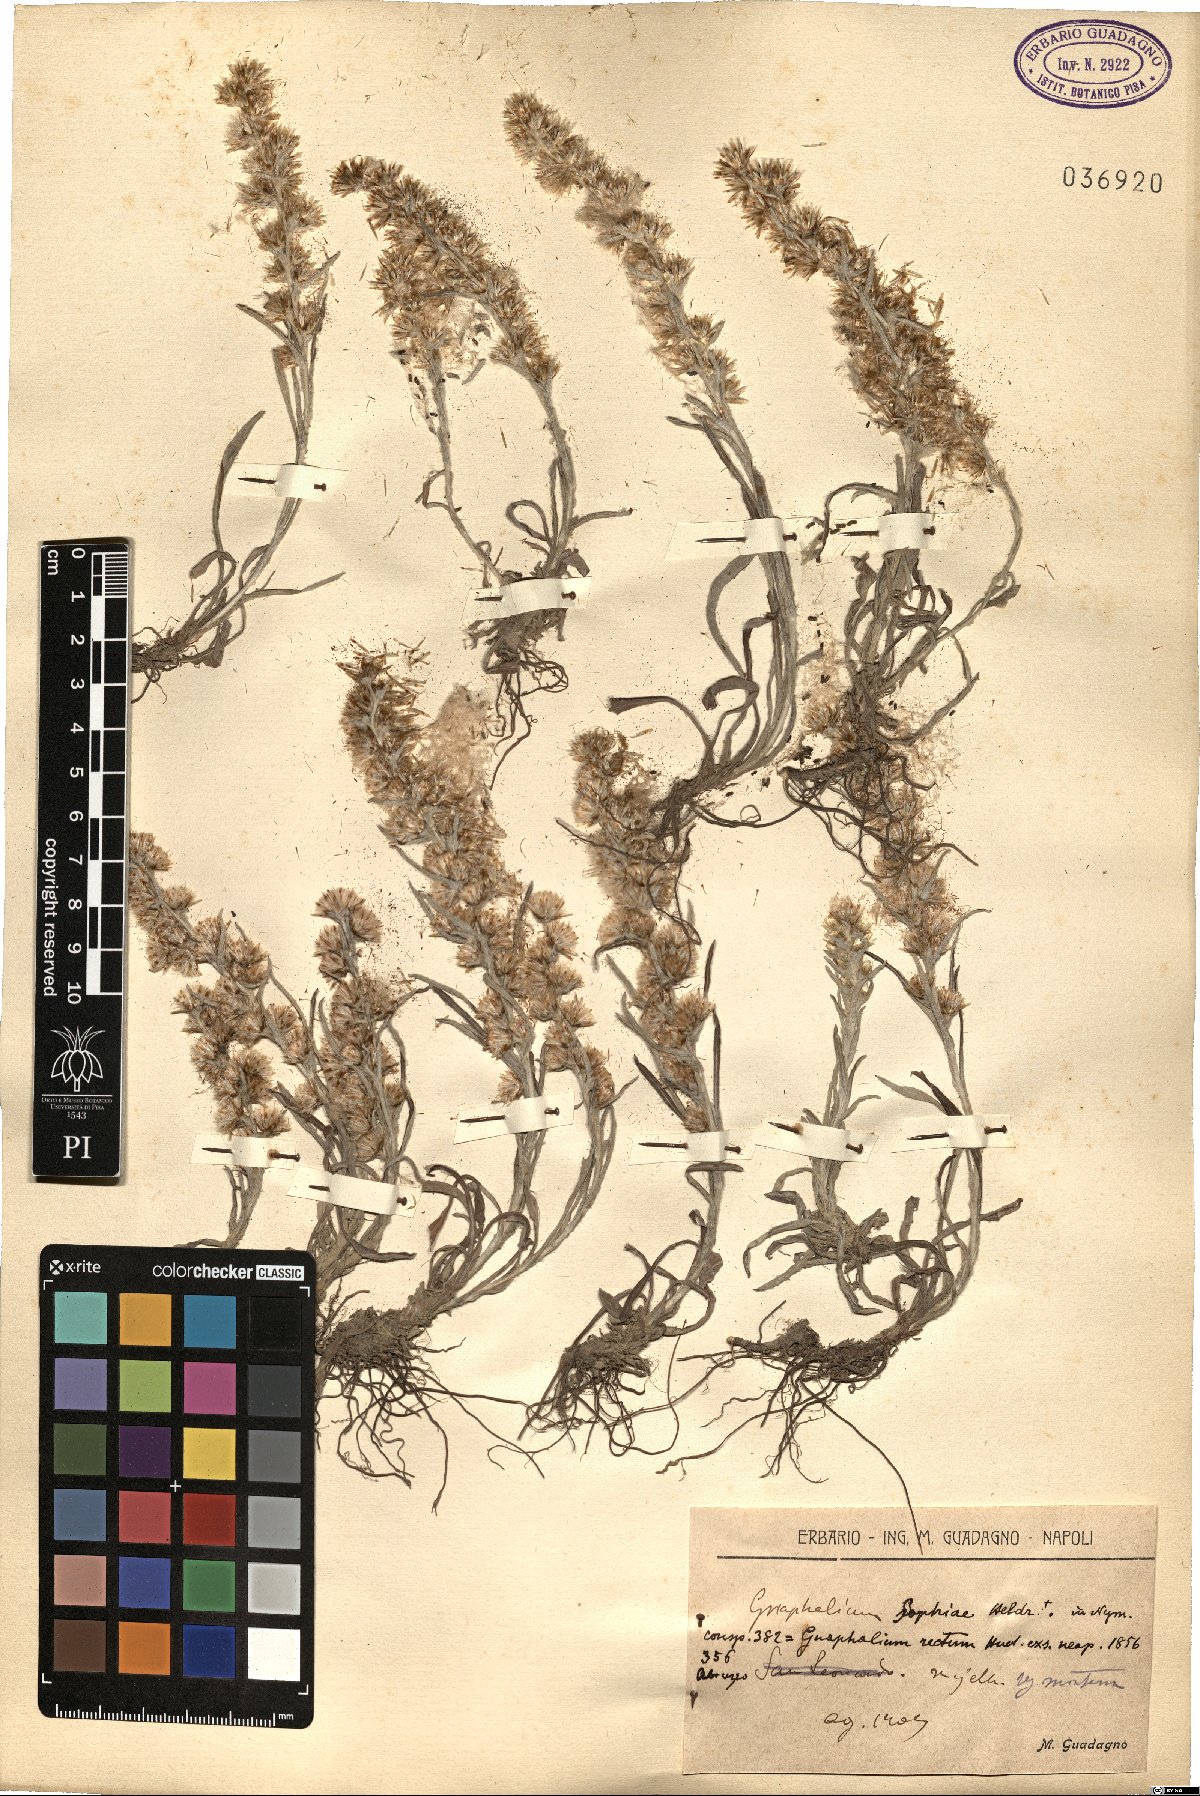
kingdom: Plantae
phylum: Tracheophyta
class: Magnoliopsida
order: Asterales
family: Asteraceae
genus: Omalotheca
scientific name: Omalotheca sylvatica
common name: Heath cudweed
